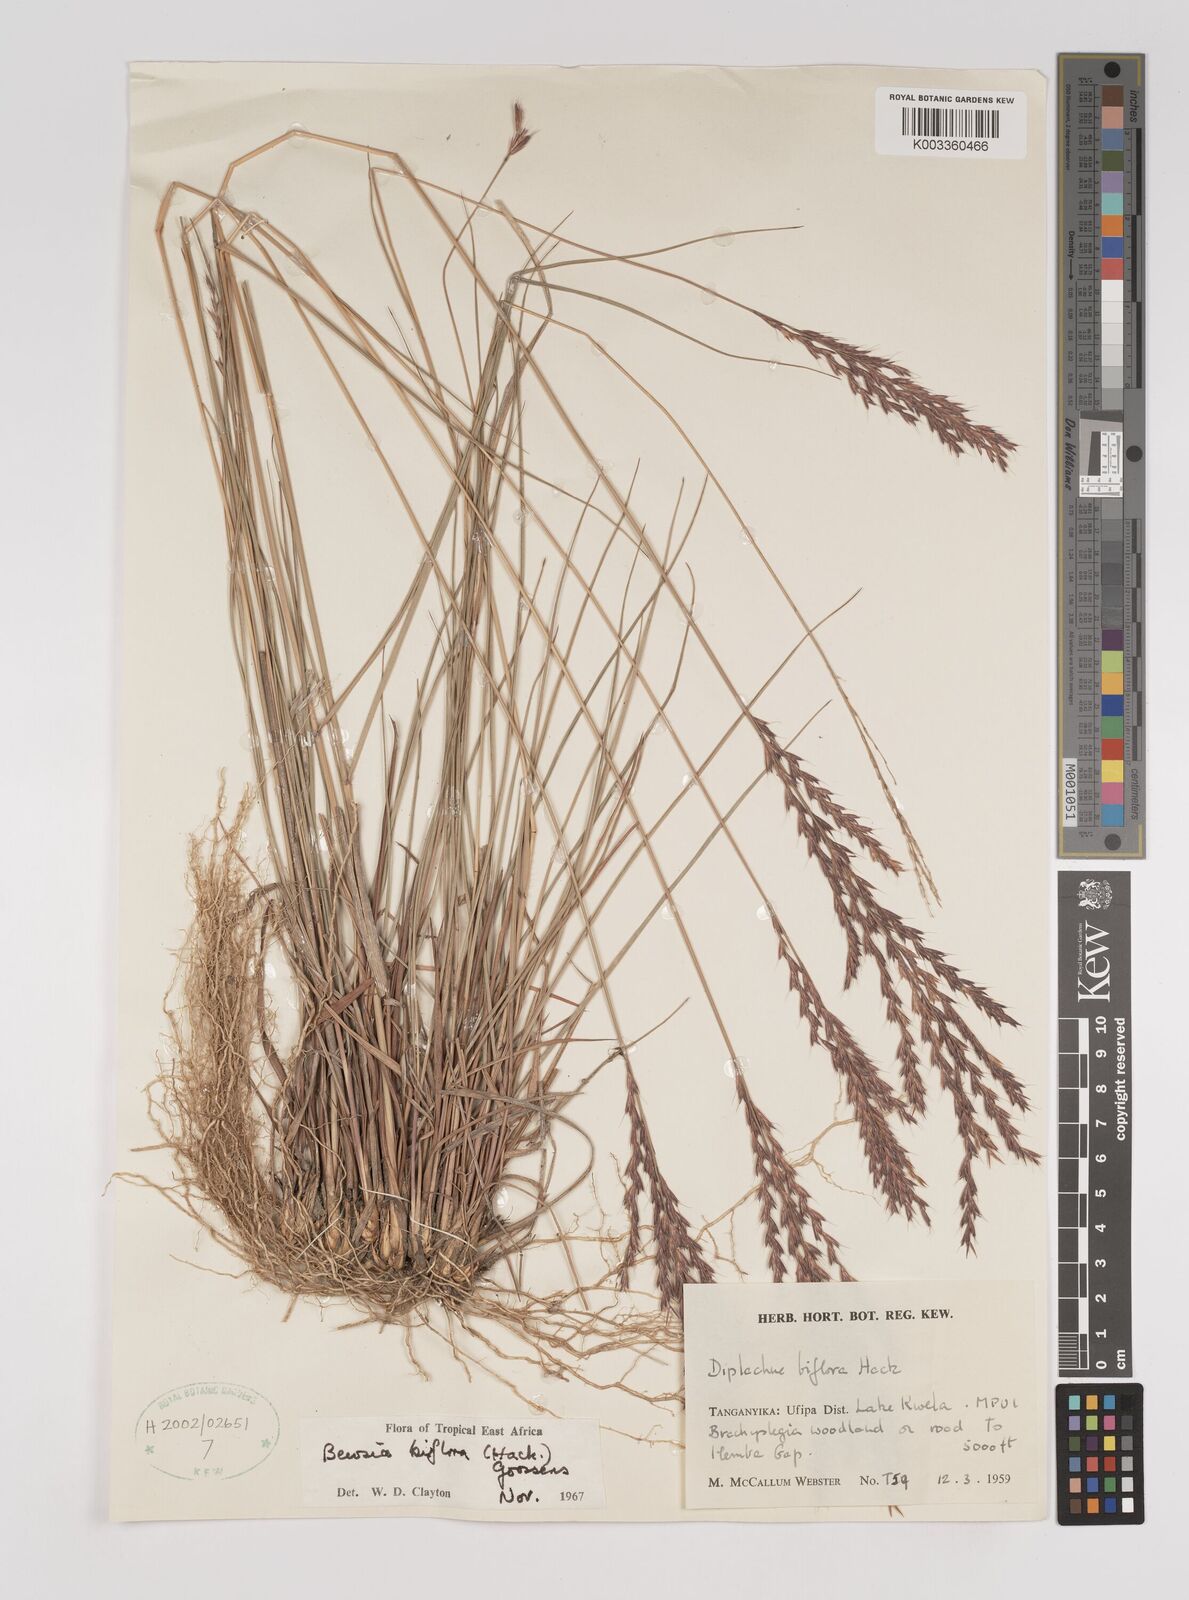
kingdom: Plantae
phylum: Tracheophyta
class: Liliopsida
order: Poales
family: Poaceae
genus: Bewsia
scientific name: Bewsia biflora
